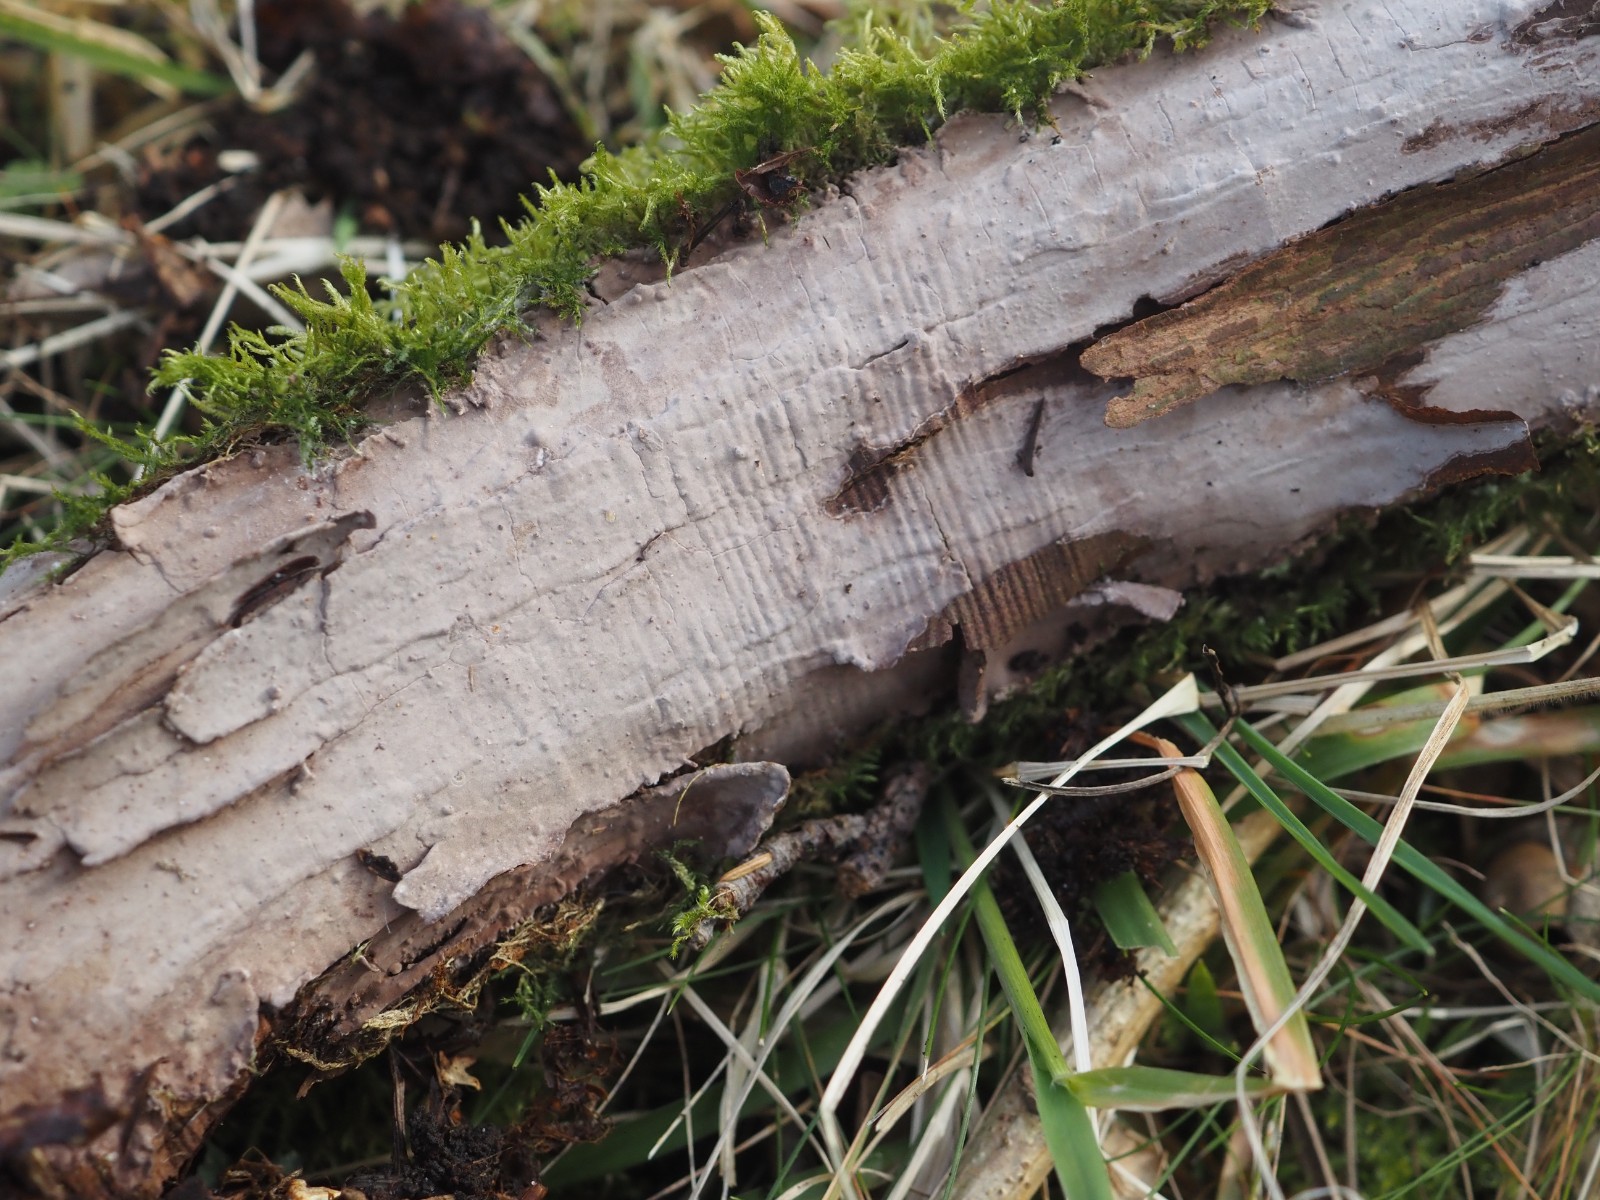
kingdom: Fungi
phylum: Basidiomycota
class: Agaricomycetes
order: Russulales
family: Echinodontiaceae
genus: Amylostereum
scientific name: Amylostereum laevigatum
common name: ene-lædersvamp
